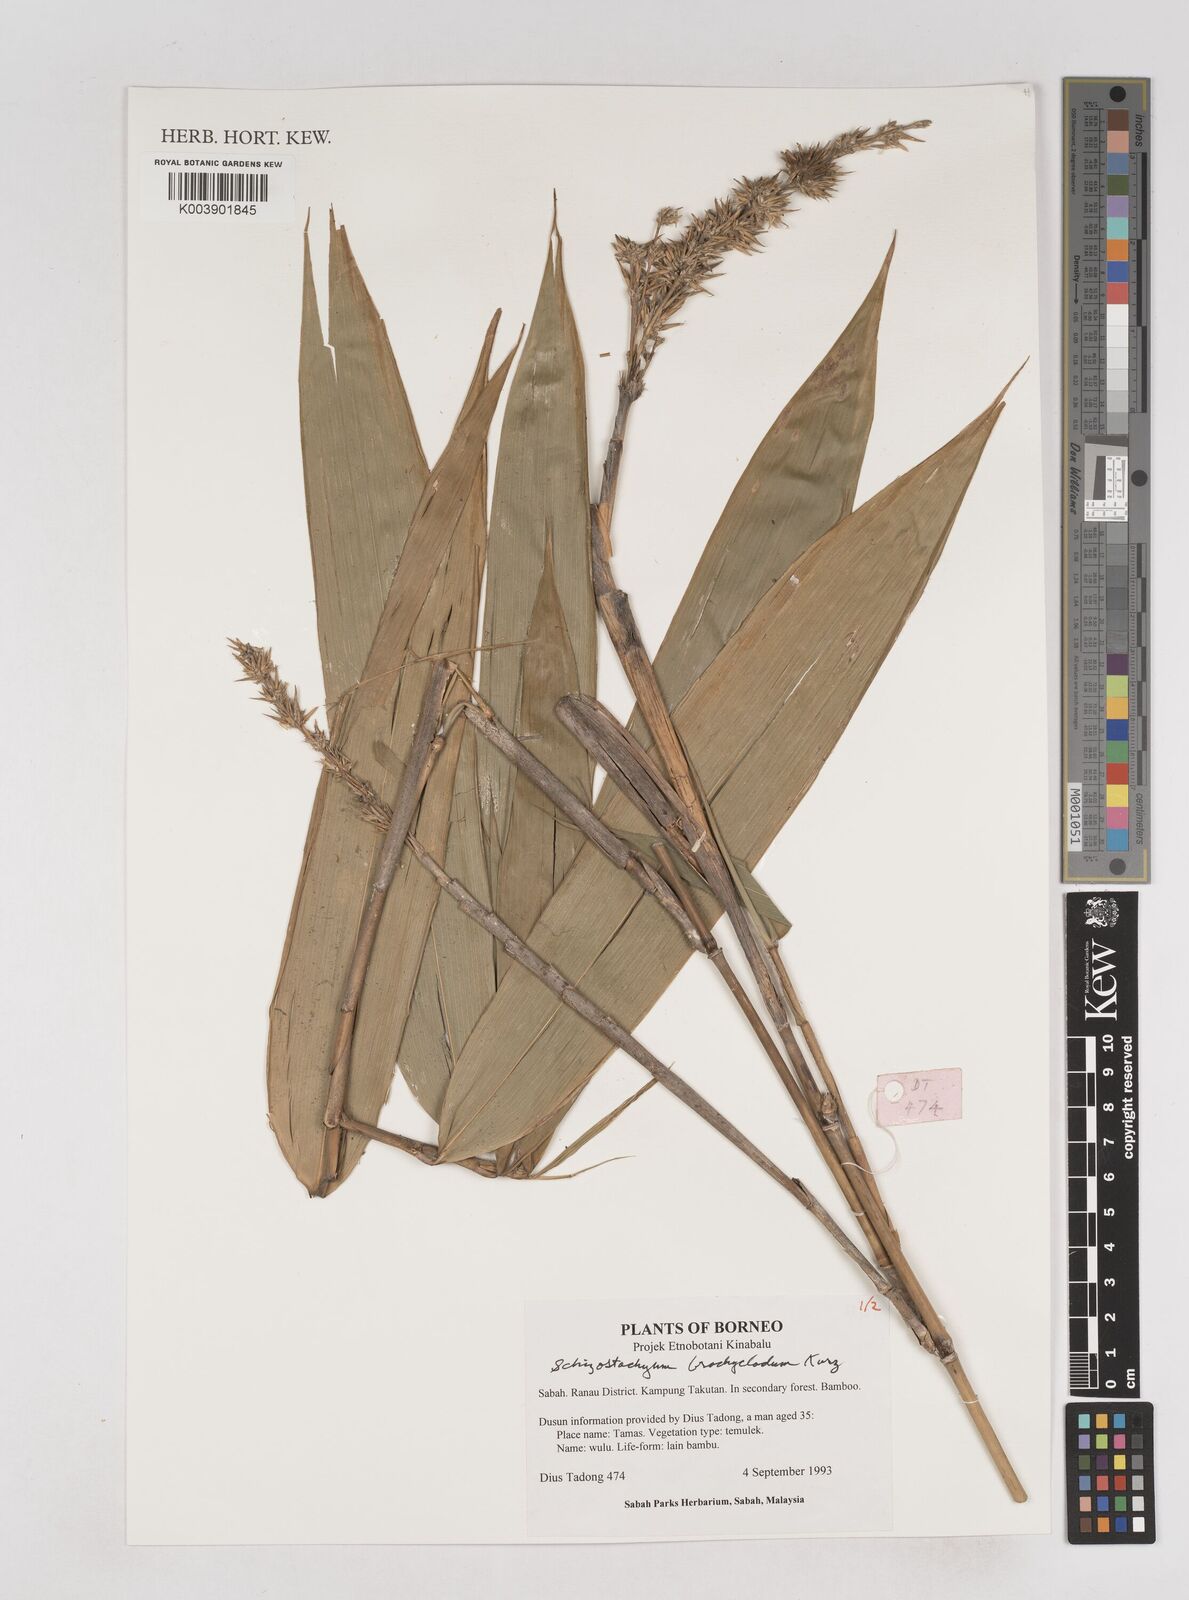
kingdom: Plantae
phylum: Tracheophyta
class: Liliopsida
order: Poales
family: Poaceae
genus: Schizostachyum
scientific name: Schizostachyum brachycladum
